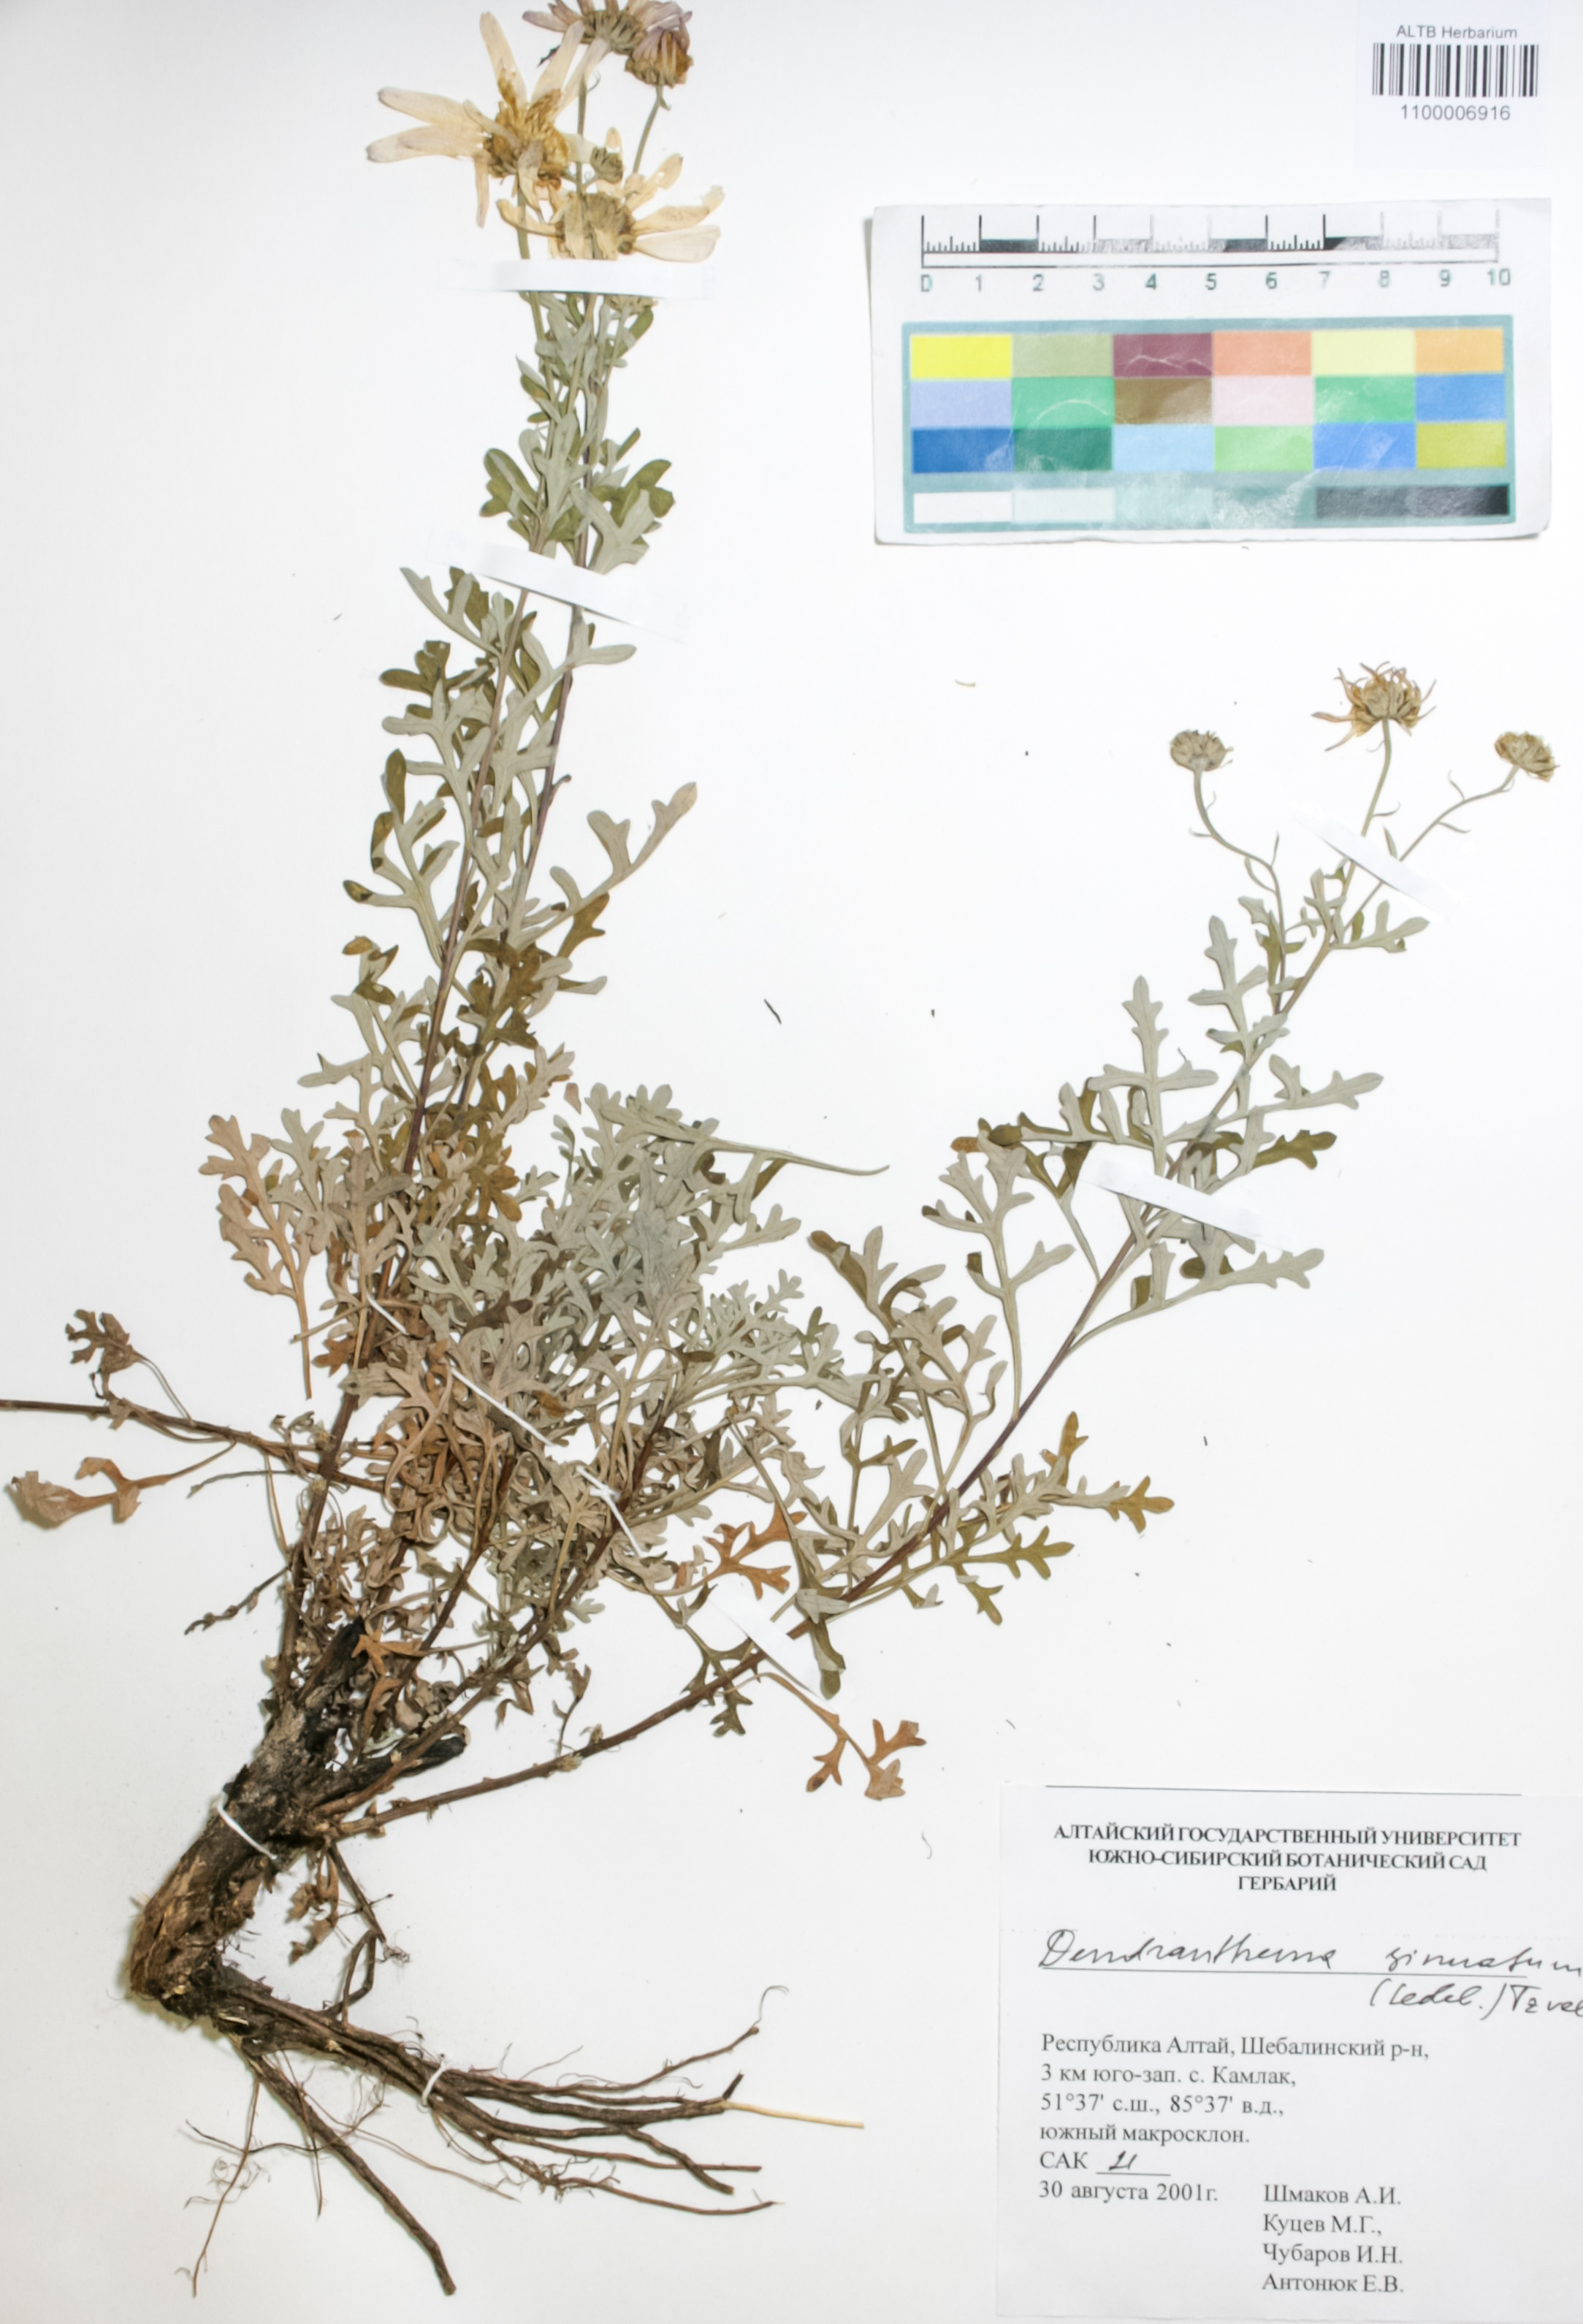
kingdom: Plantae
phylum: Tracheophyta
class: Magnoliopsida
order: Asterales
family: Asteraceae
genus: Chrysanthemum
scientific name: Chrysanthemum sinuatum
